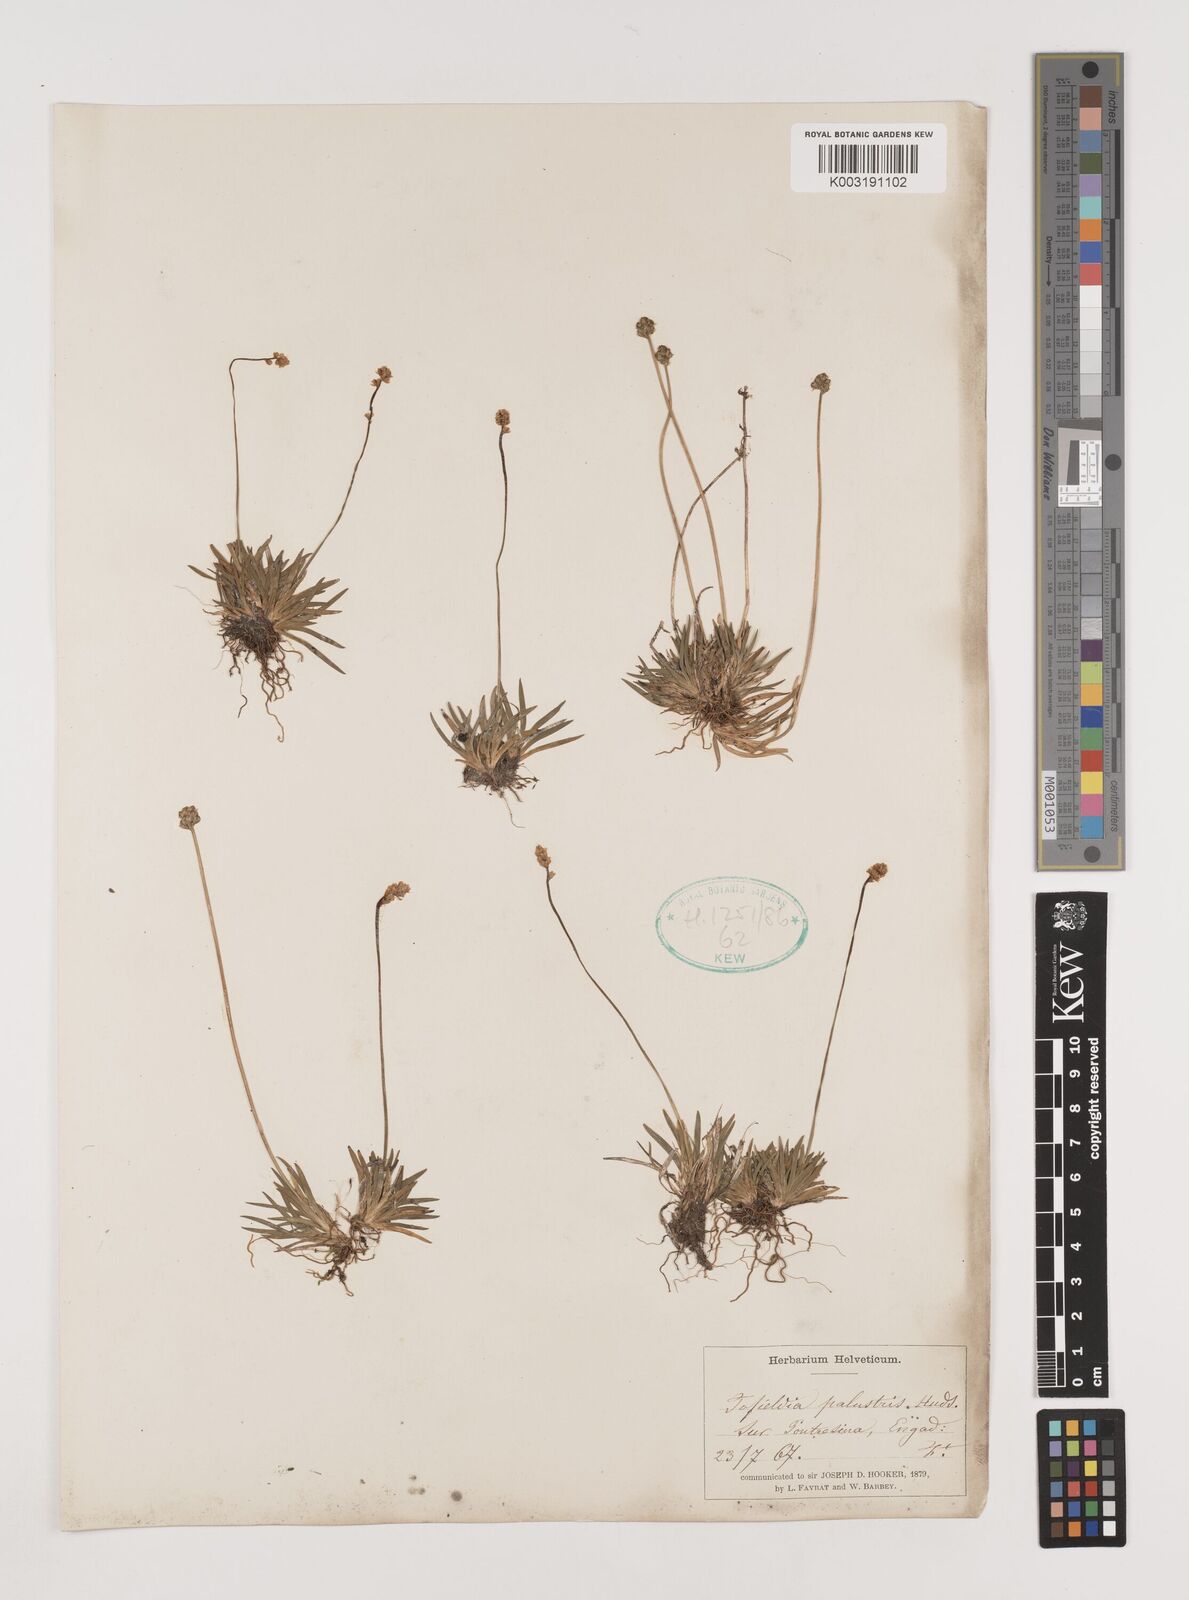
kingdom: Plantae
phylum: Tracheophyta
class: Liliopsida
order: Alismatales
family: Tofieldiaceae
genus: Tofieldia
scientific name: Tofieldia pusilla
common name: Scottish false asphodel
